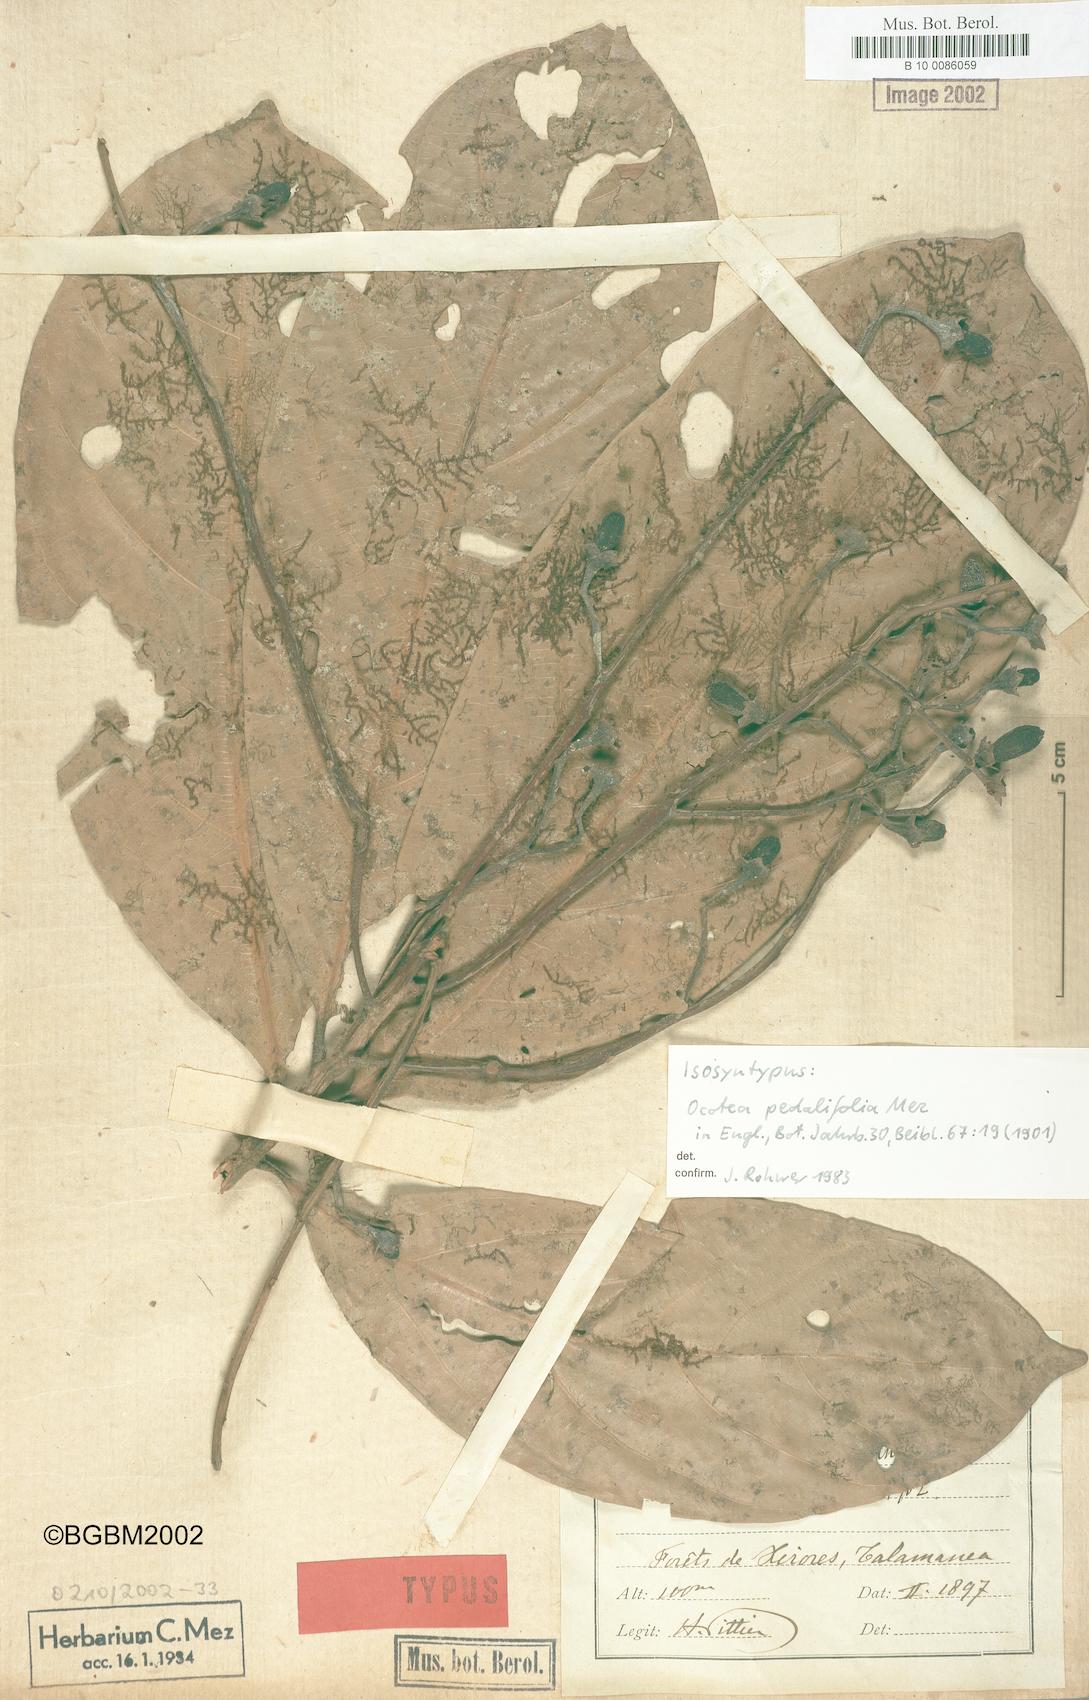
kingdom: Plantae
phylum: Tracheophyta
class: Magnoliopsida
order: Laurales
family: Lauraceae
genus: Ocotea
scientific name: Ocotea atirrensis
